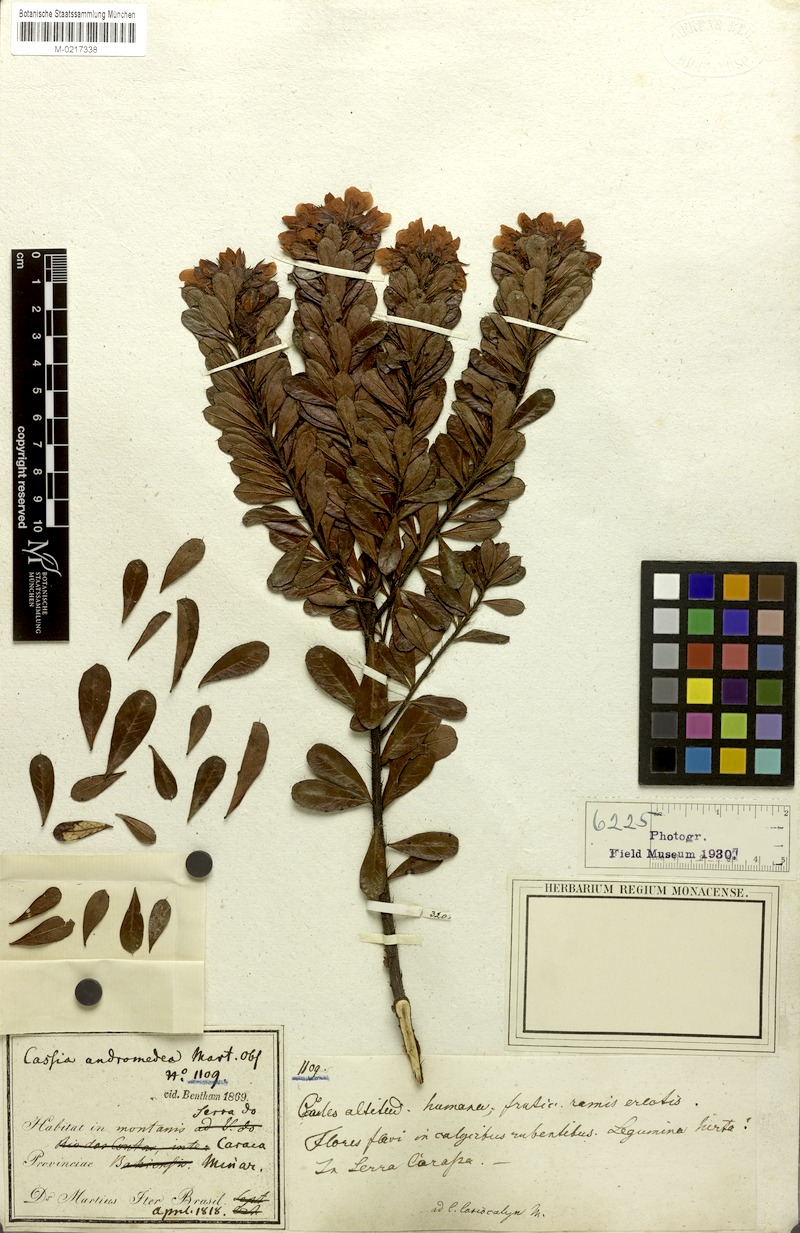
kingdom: Plantae
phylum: Tracheophyta
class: Magnoliopsida
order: Fabales
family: Fabaceae
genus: Chamaecrista
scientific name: Chamaecrista andromedea
